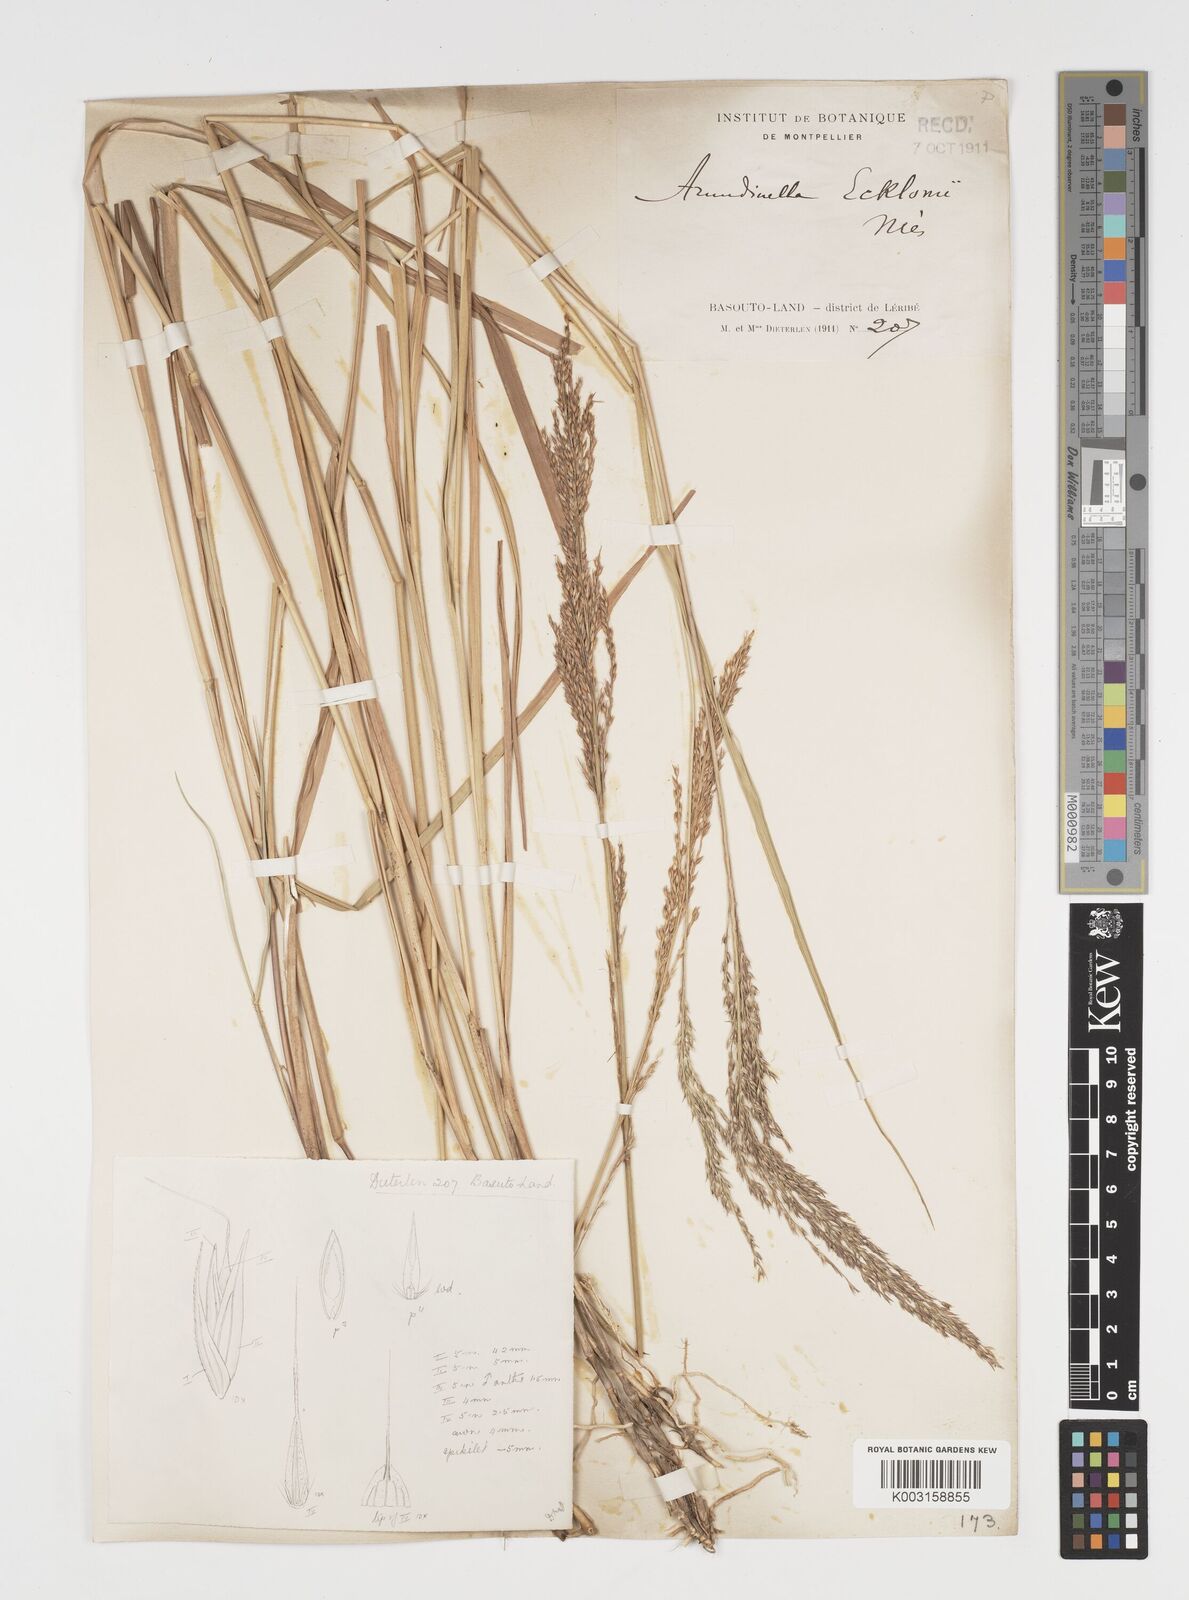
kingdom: Plantae
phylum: Tracheophyta
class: Liliopsida
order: Poales
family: Poaceae
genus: Arundinella
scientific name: Arundinella nepalensis
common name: Reed grass
